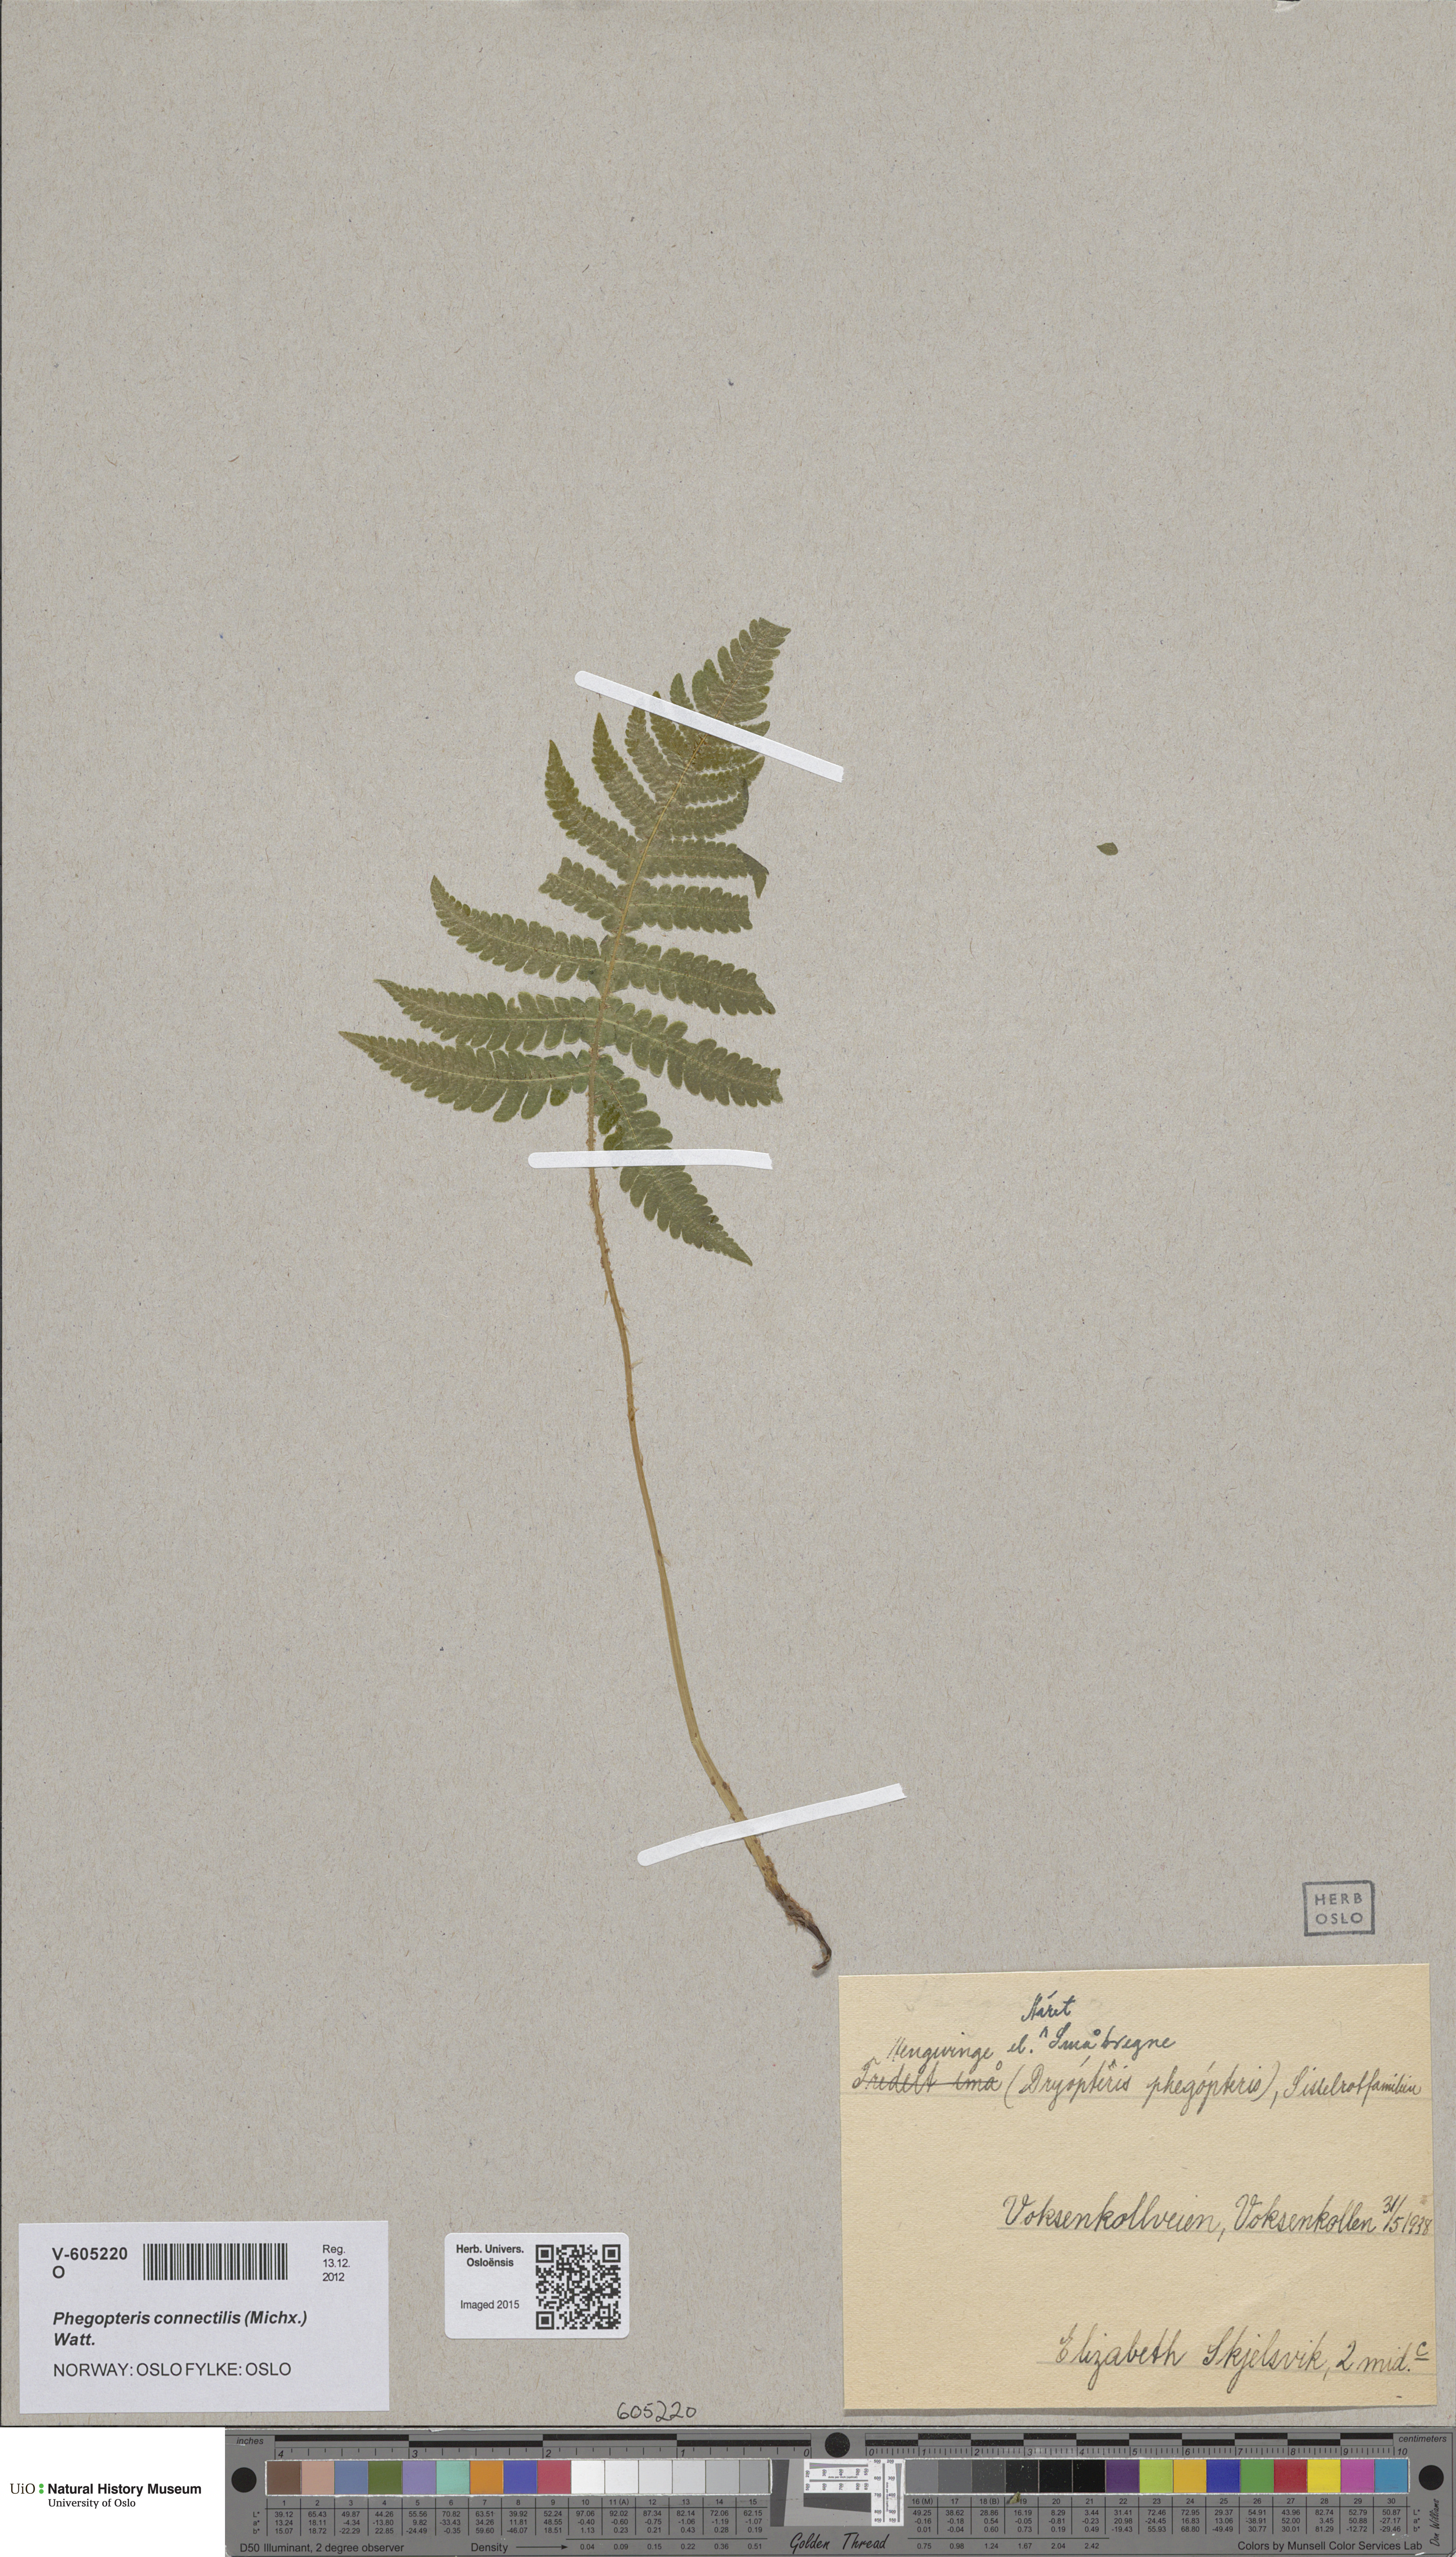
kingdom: Plantae
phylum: Tracheophyta
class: Polypodiopsida
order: Polypodiales
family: Thelypteridaceae
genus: Phegopteris
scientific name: Phegopteris connectilis
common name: Beech fern
